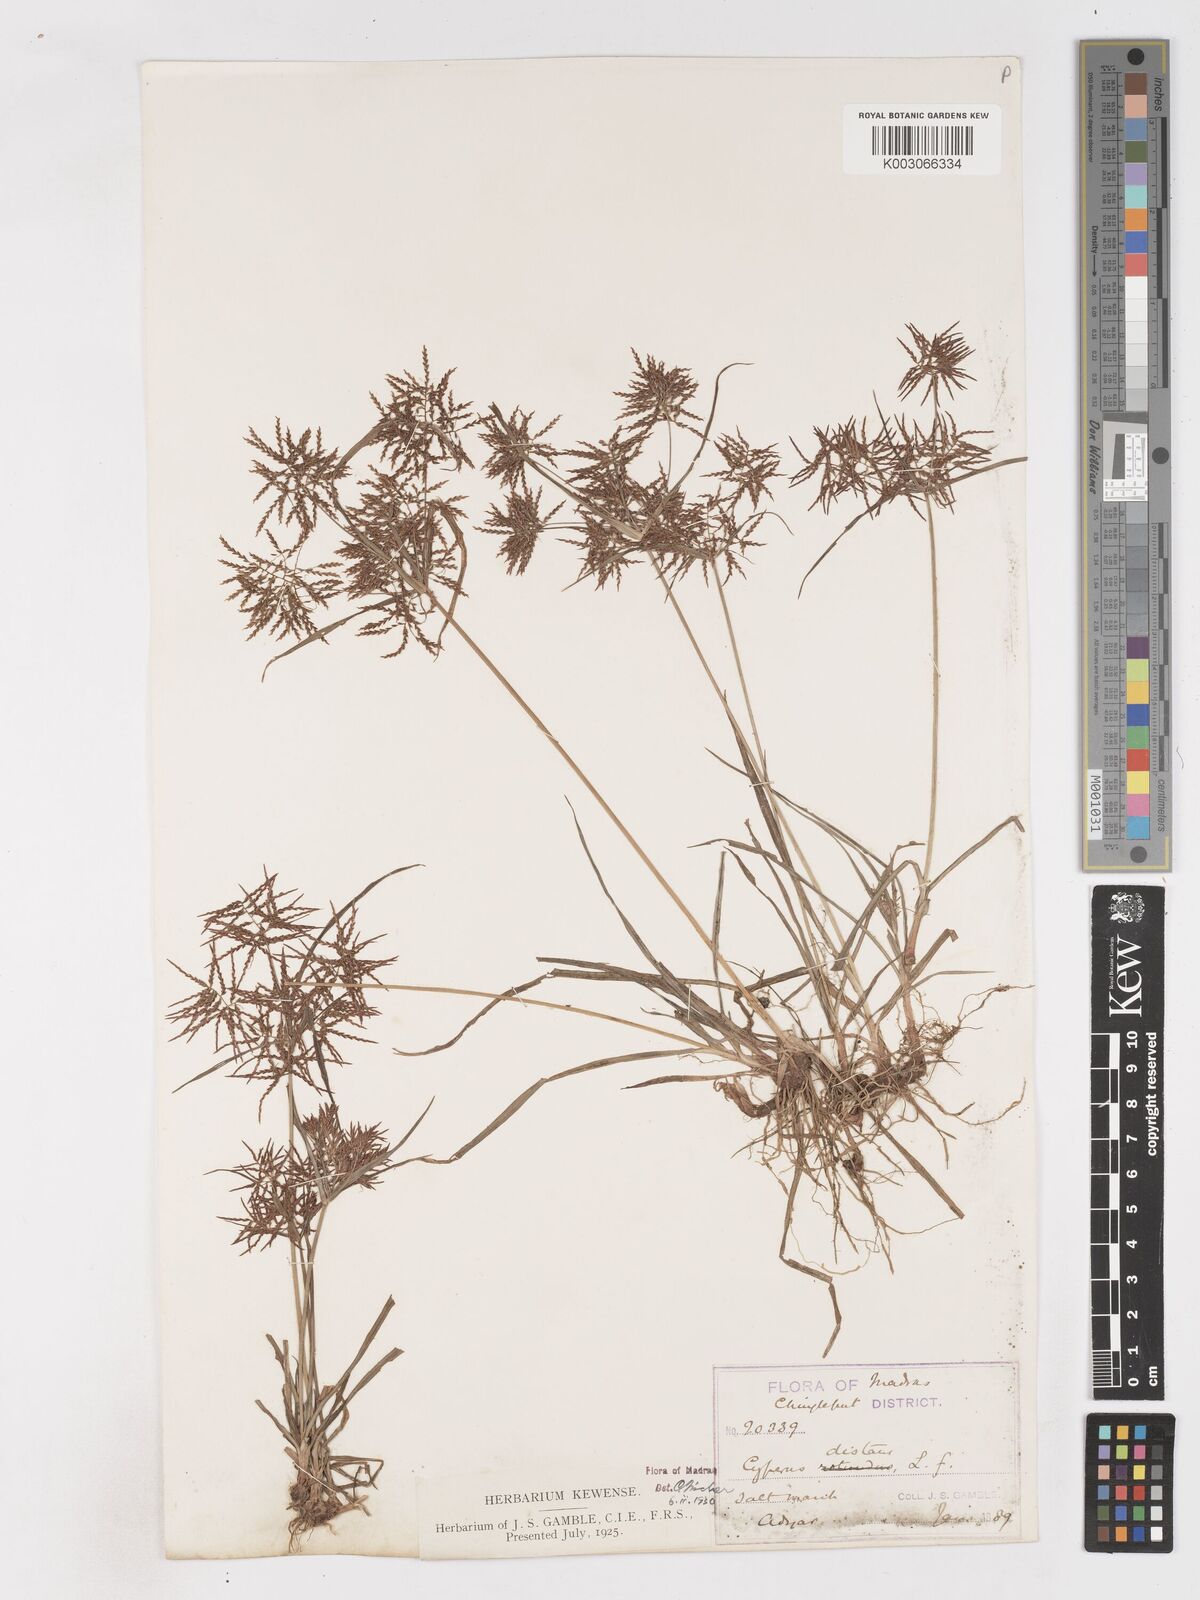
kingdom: Plantae
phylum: Tracheophyta
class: Liliopsida
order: Poales
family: Cyperaceae
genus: Cyperus
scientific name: Cyperus distans
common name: Slender cyperus
